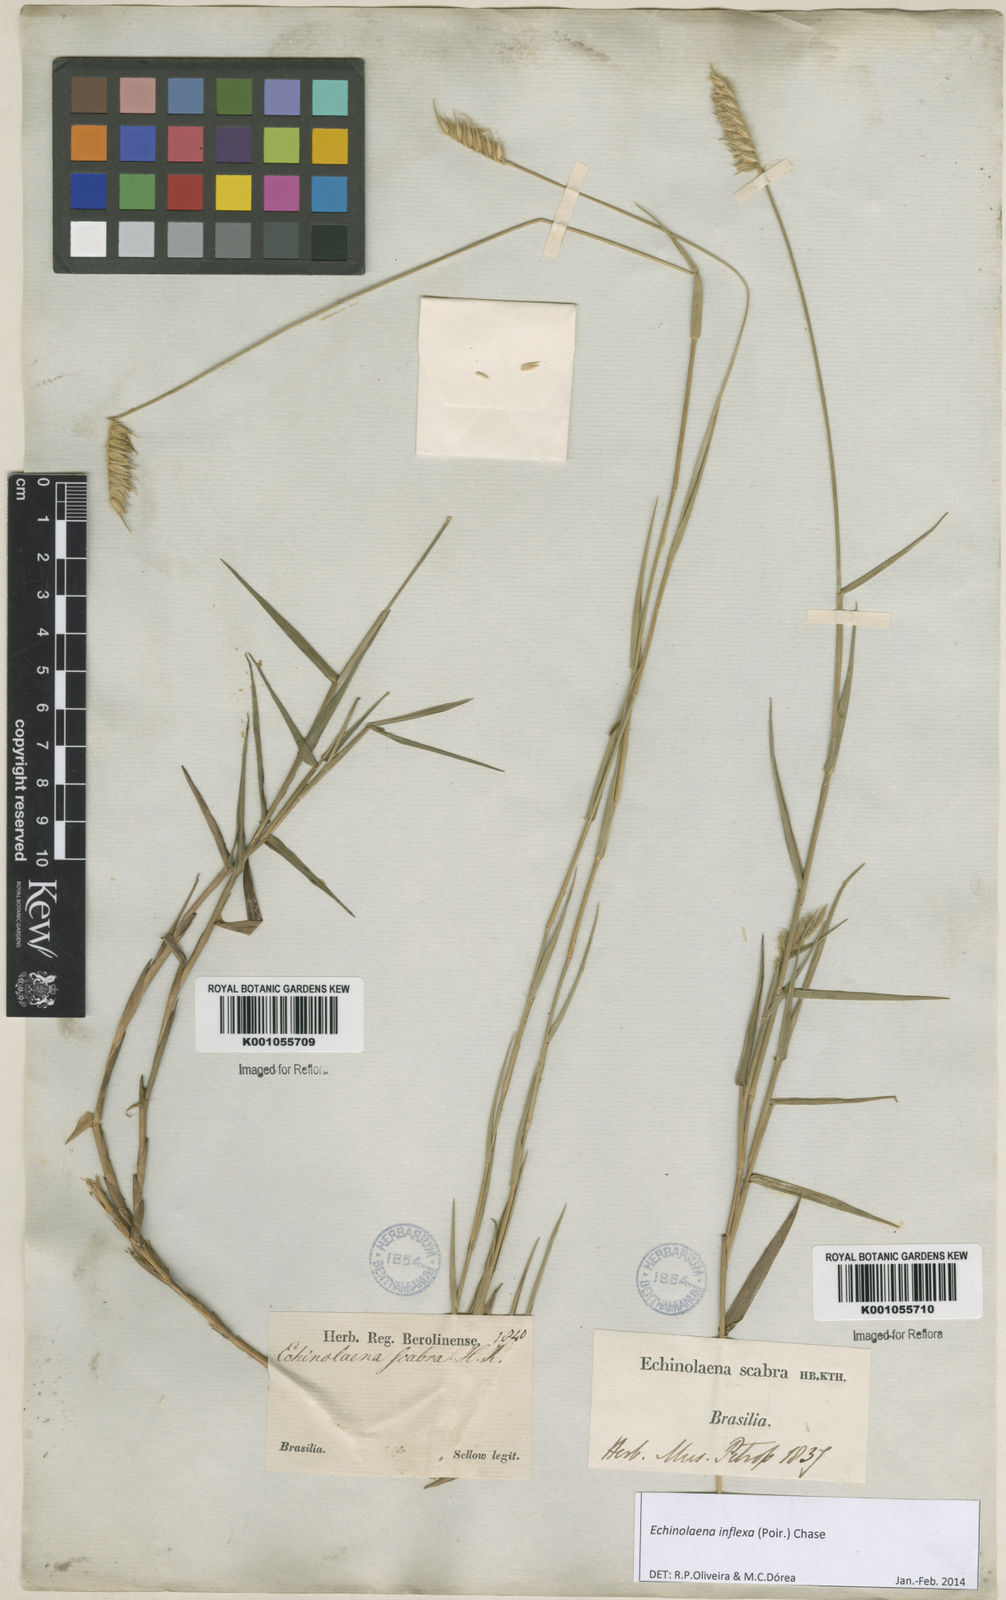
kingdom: Plantae
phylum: Tracheophyta
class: Liliopsida
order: Poales
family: Poaceae
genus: Echinolaena
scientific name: Echinolaena inflexa
